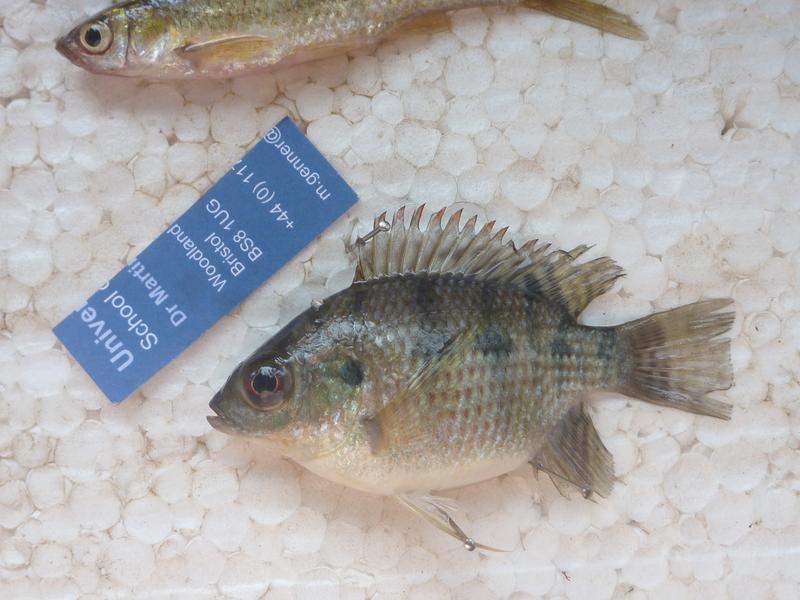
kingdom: Animalia
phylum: Chordata
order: Perciformes
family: Cichlidae
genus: Oreochromis
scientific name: Oreochromis upembae
